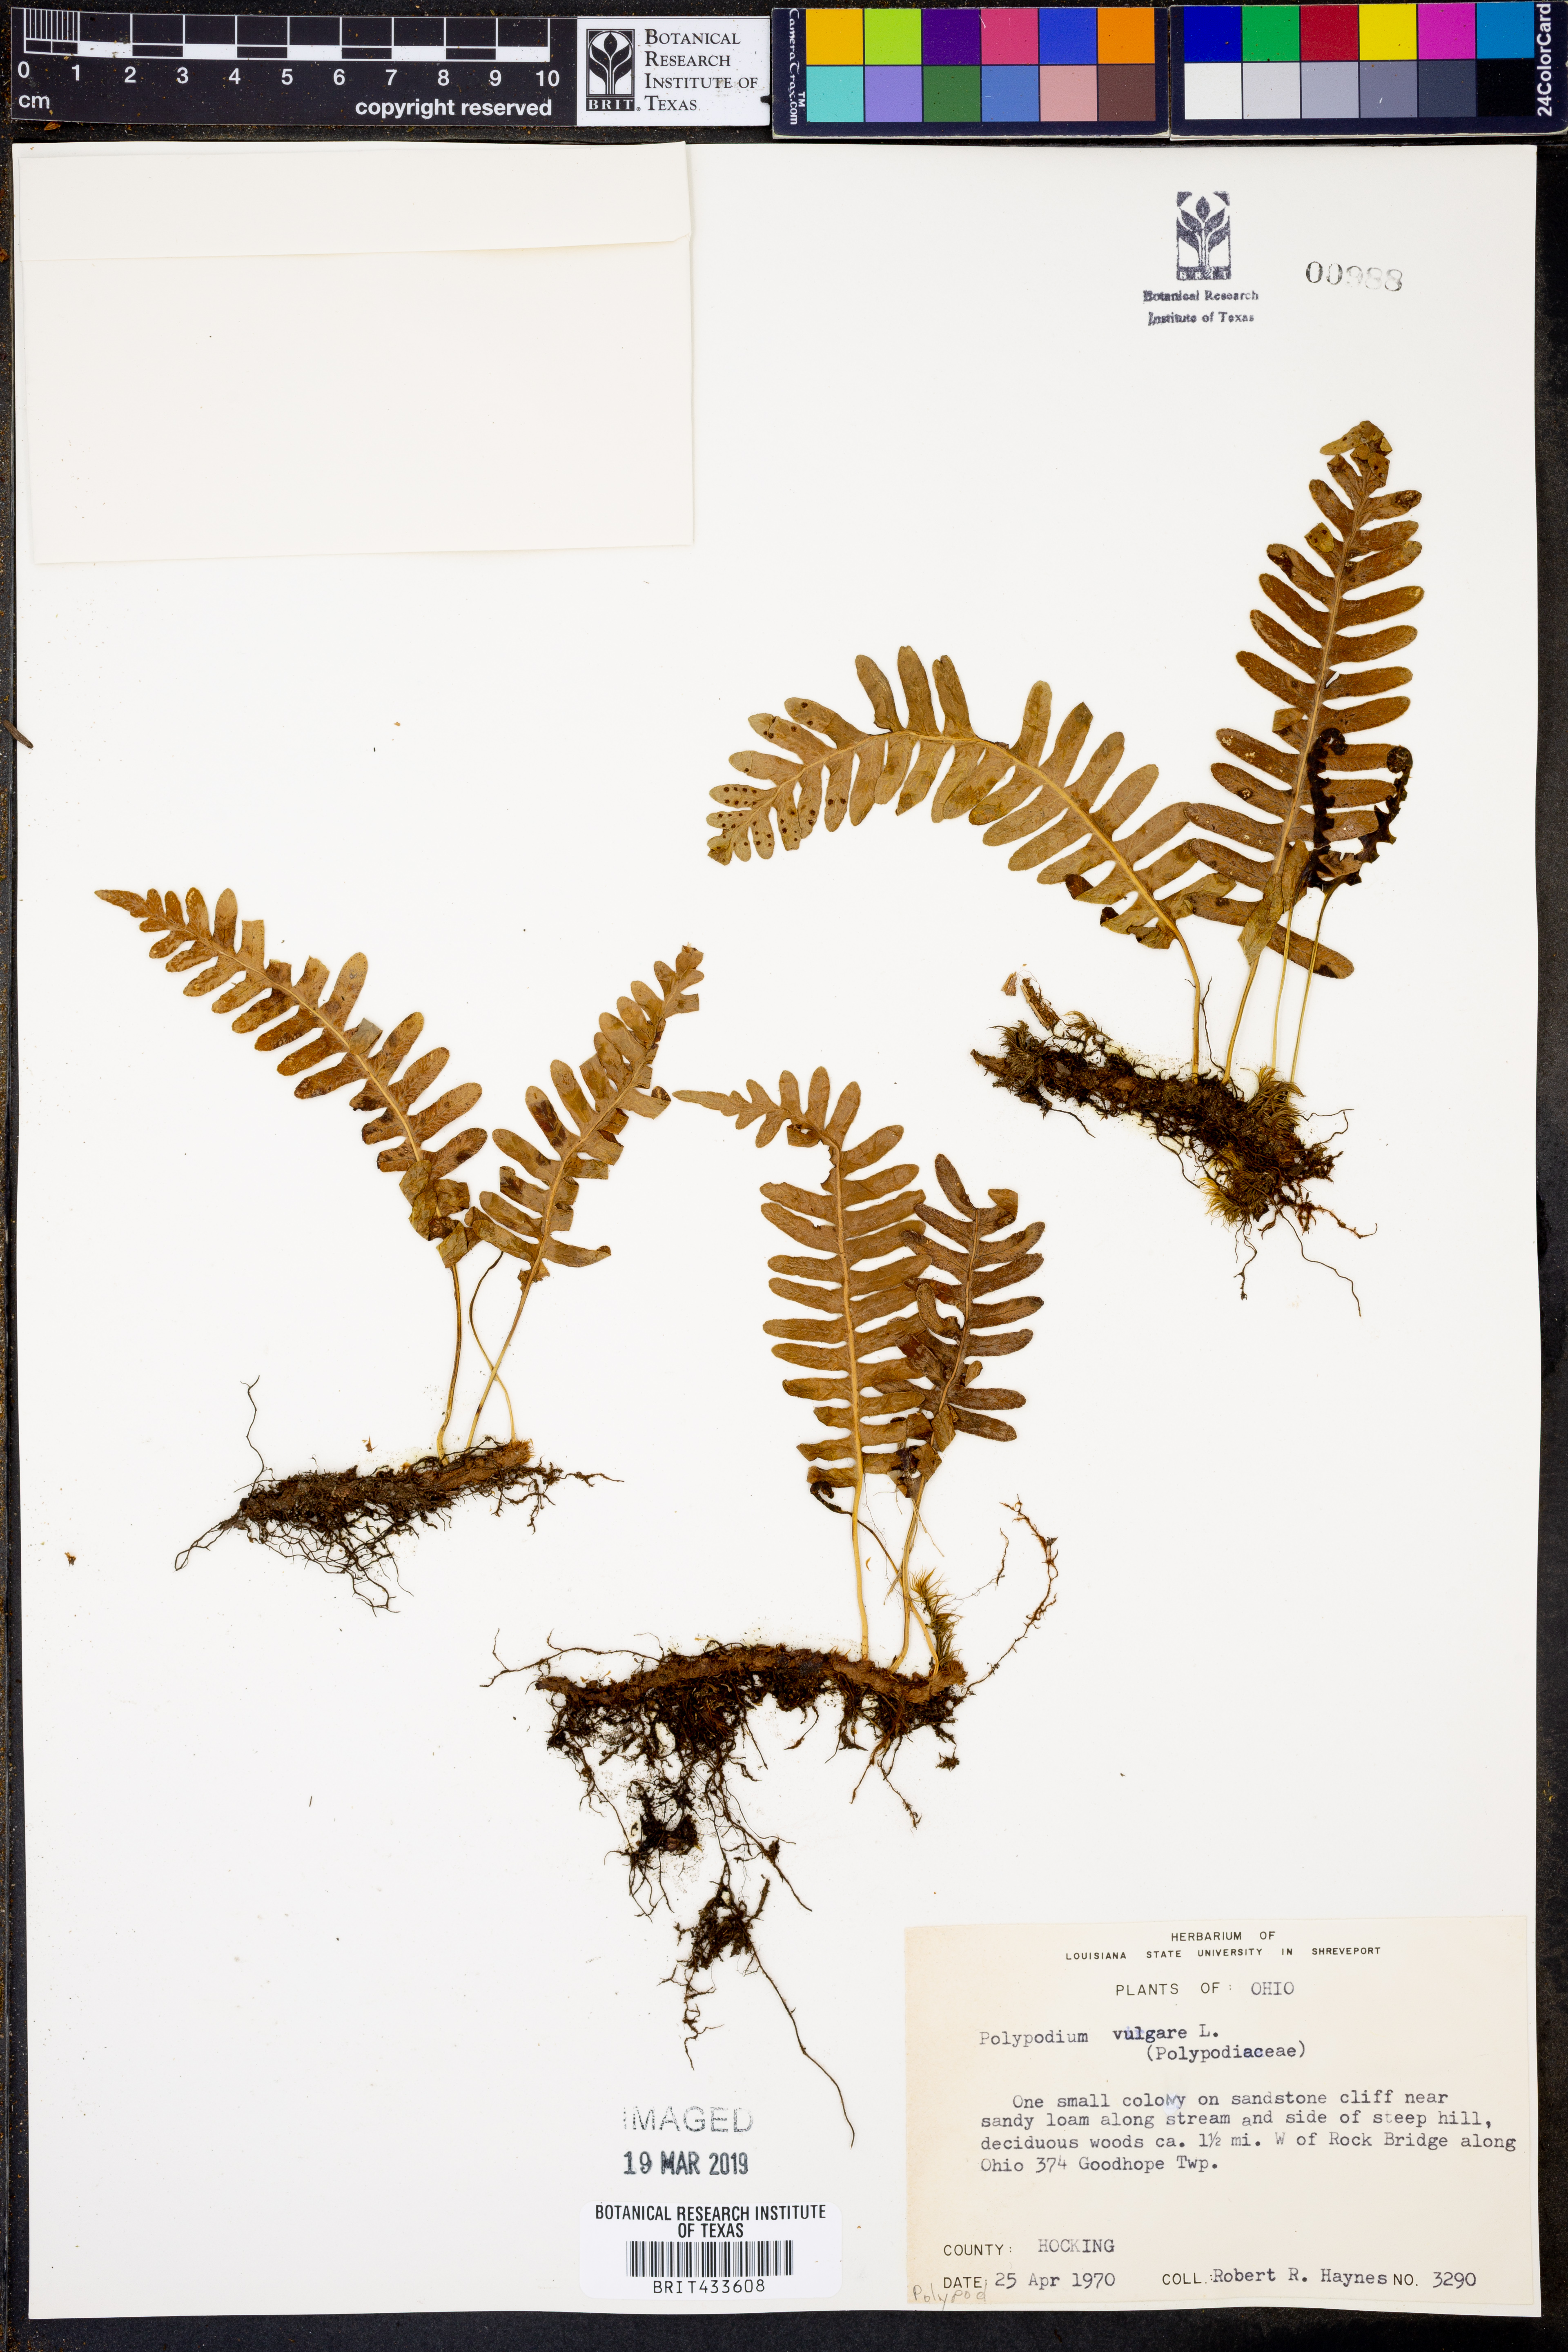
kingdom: Plantae
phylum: Tracheophyta
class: Polypodiopsida
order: Polypodiales
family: Polypodiaceae
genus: Polypodium
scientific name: Polypodium vulgare
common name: Common polypody
